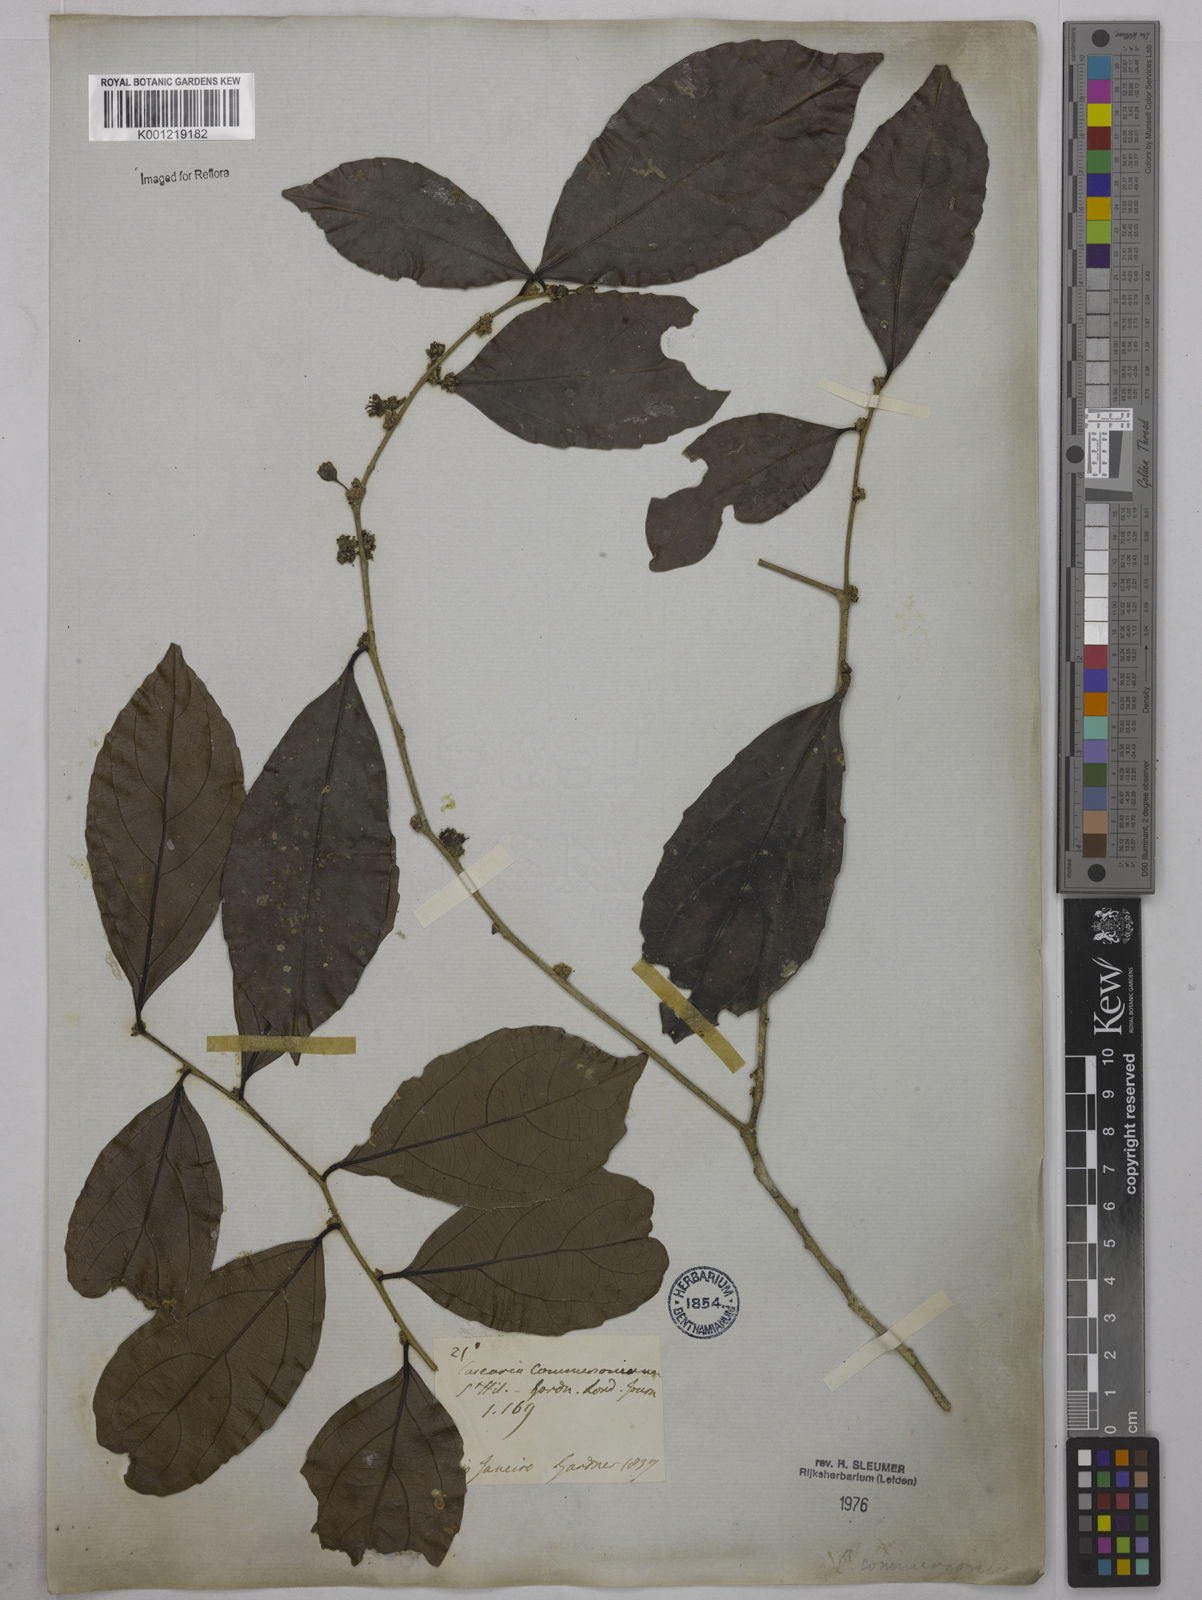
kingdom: Plantae
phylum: Tracheophyta
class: Magnoliopsida
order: Malpighiales
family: Salicaceae
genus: Piparea
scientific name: Piparea dentata
